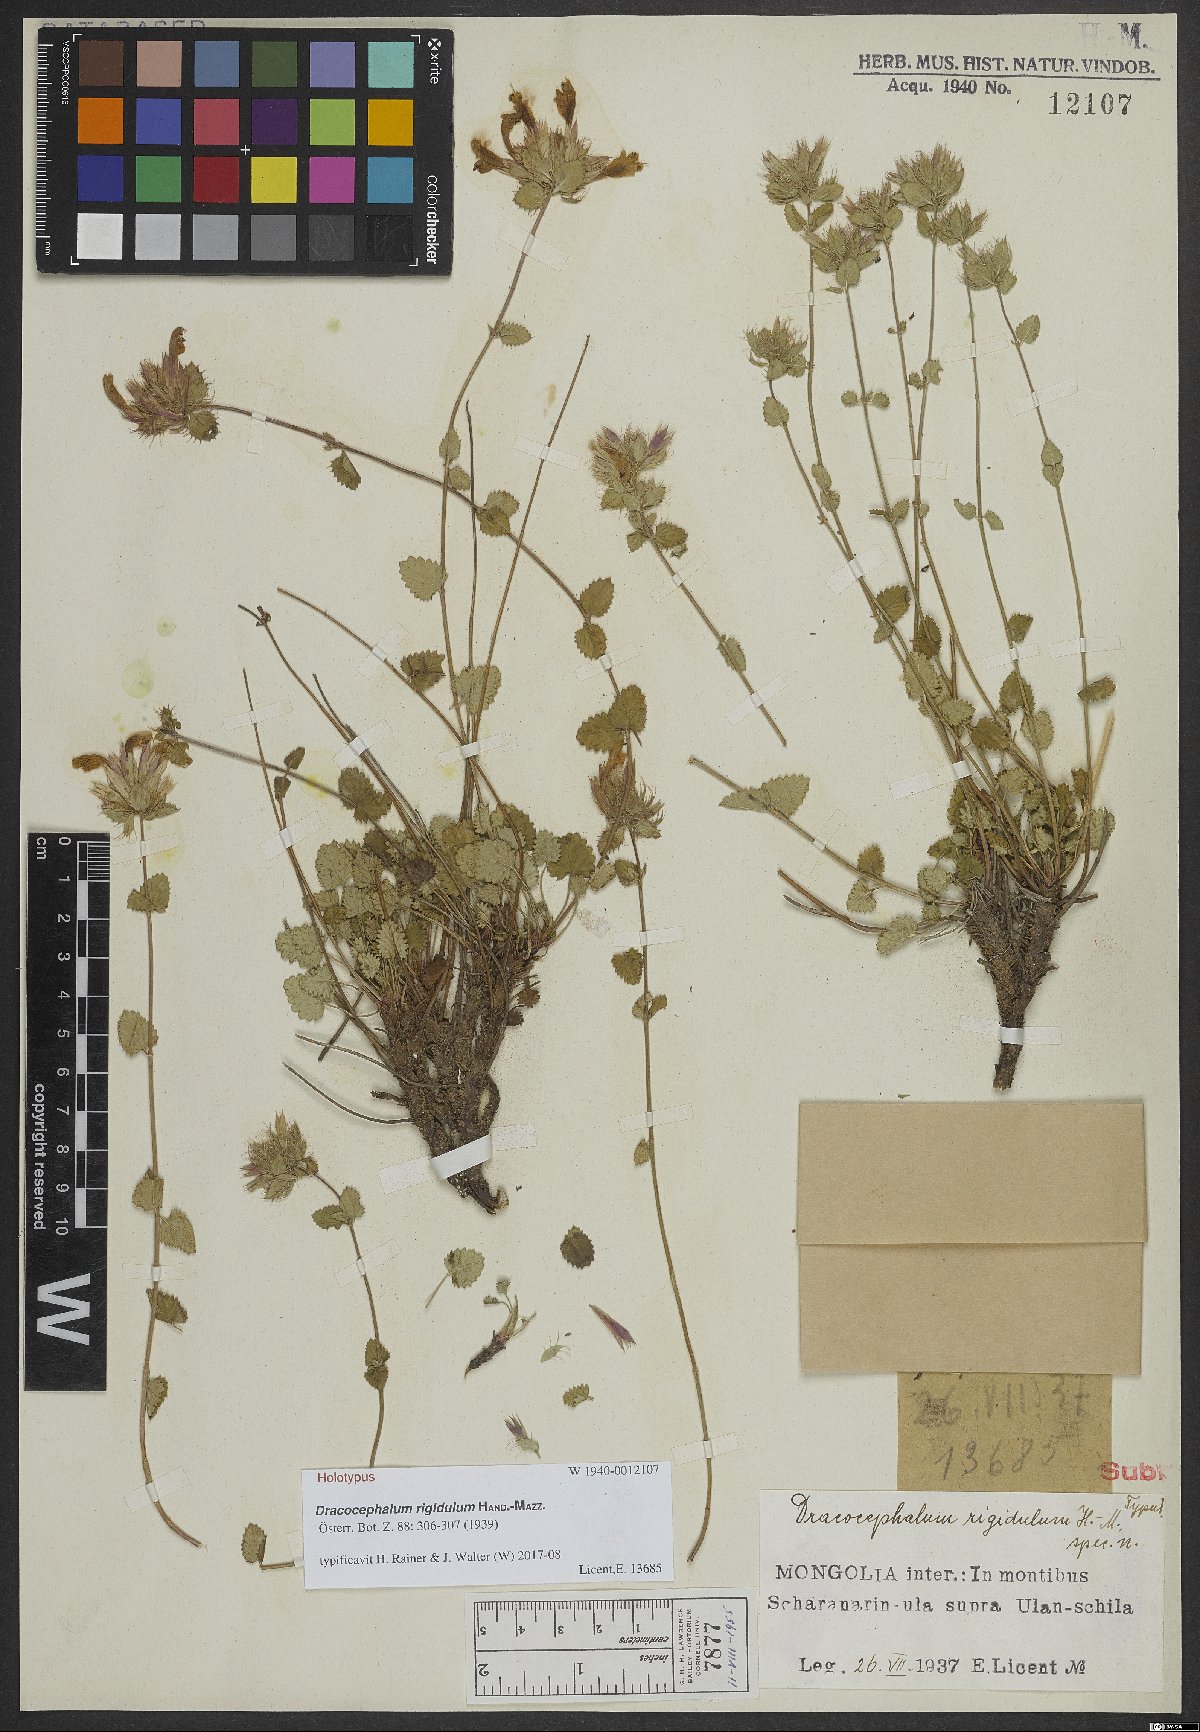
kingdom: Plantae
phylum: Tracheophyta
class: Magnoliopsida
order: Lamiales
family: Lamiaceae
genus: Dracocephalum
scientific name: Dracocephalum rigidulum
